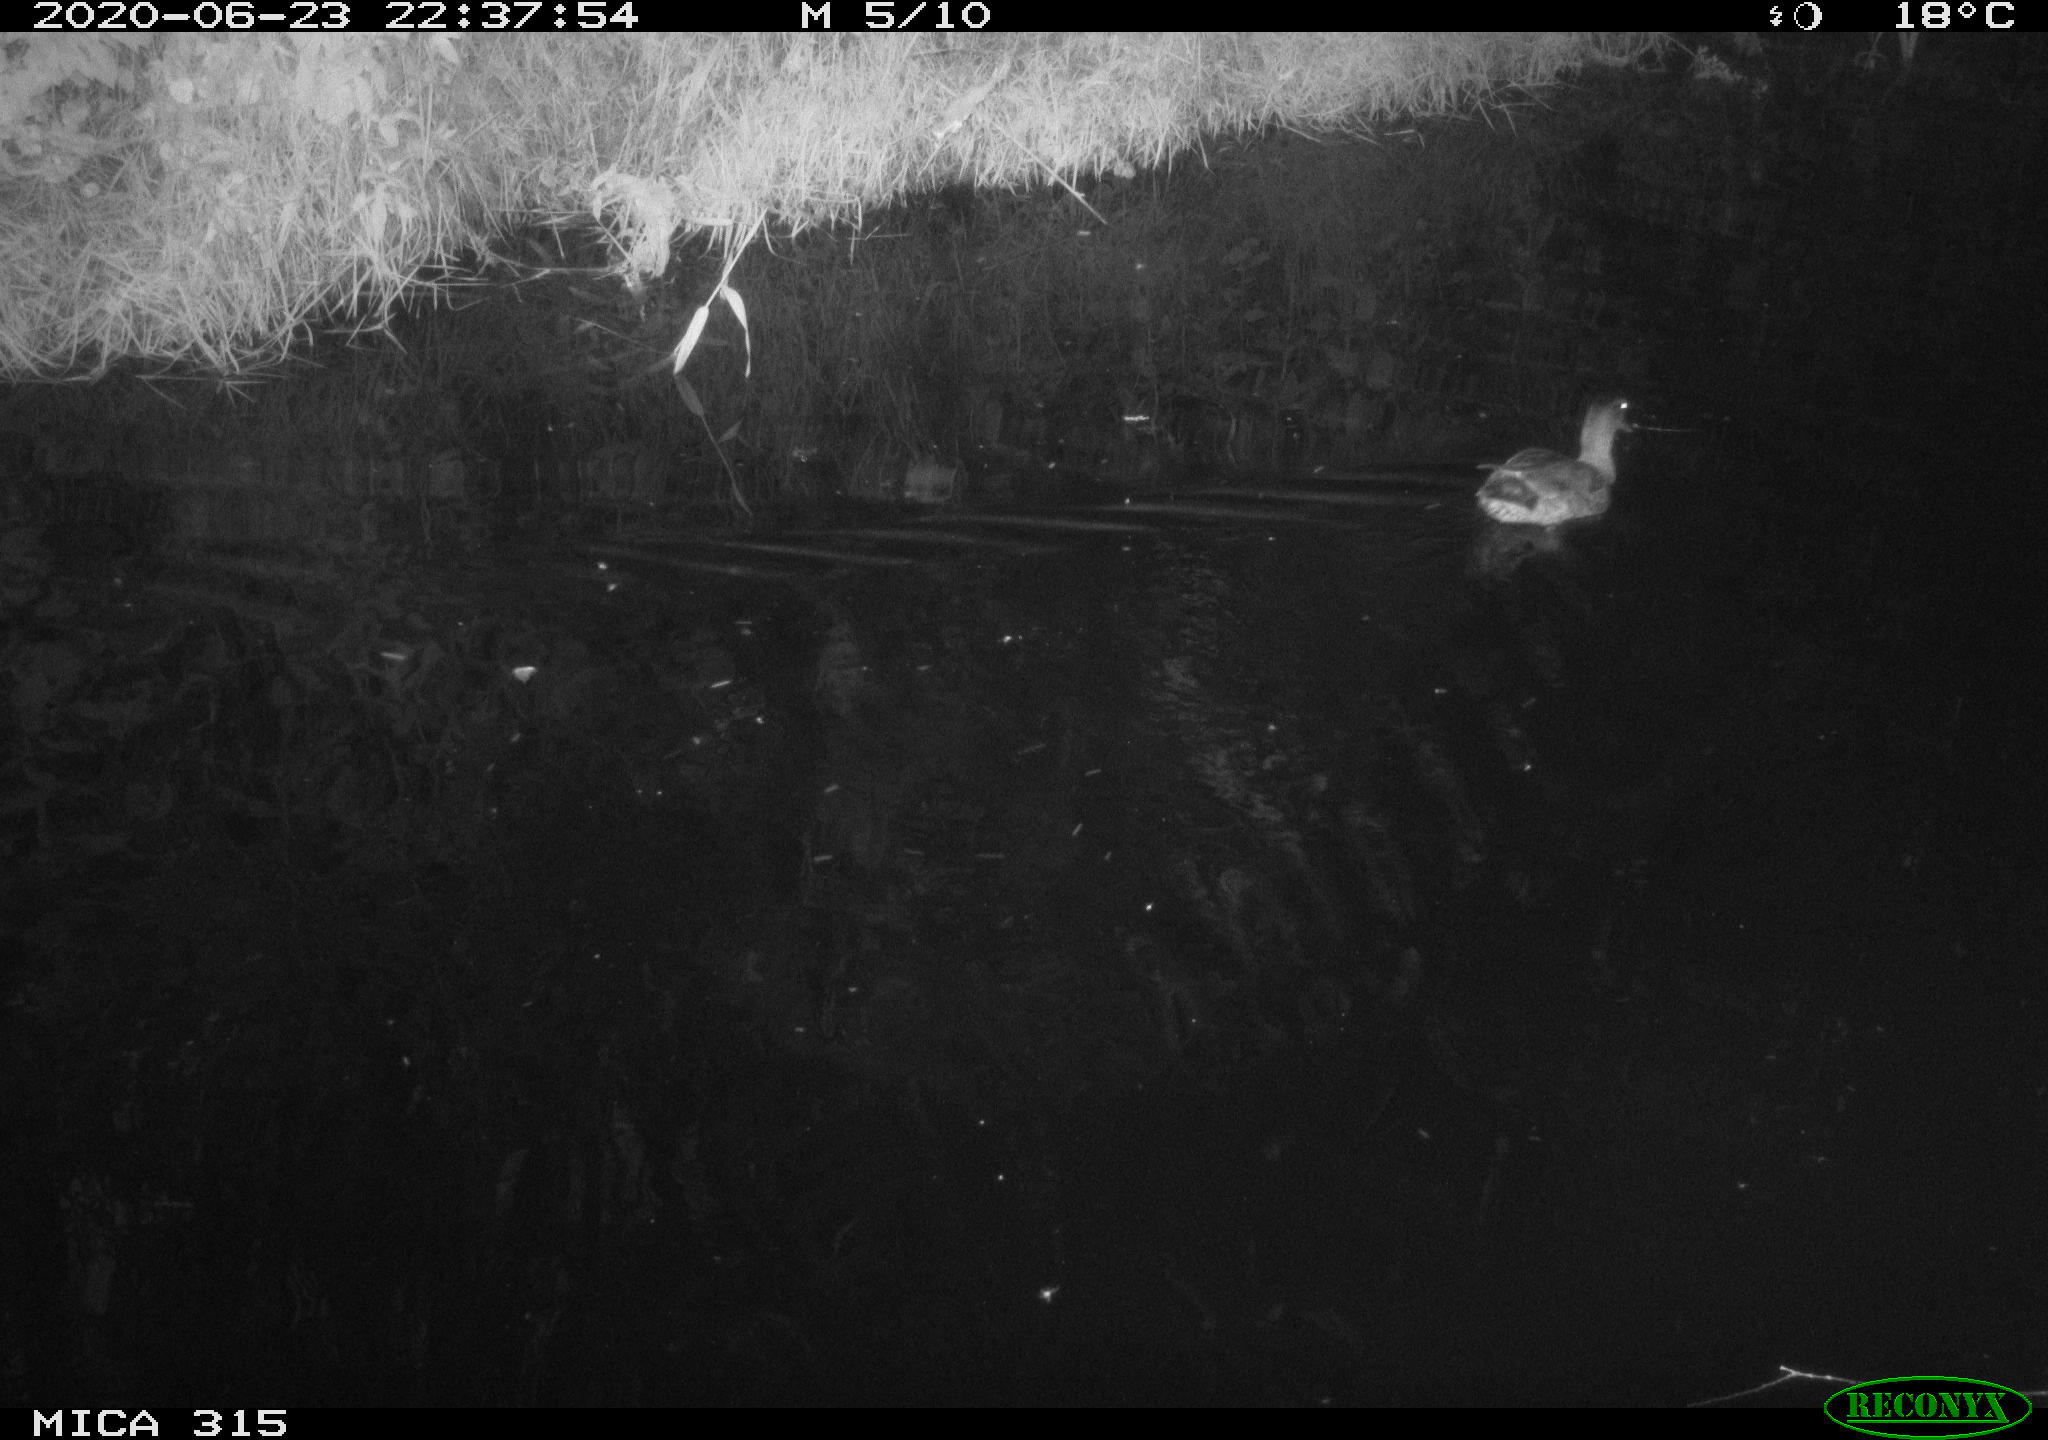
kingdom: Animalia
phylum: Chordata
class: Aves
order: Anseriformes
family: Anatidae
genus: Anas
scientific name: Anas platyrhynchos
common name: Mallard
